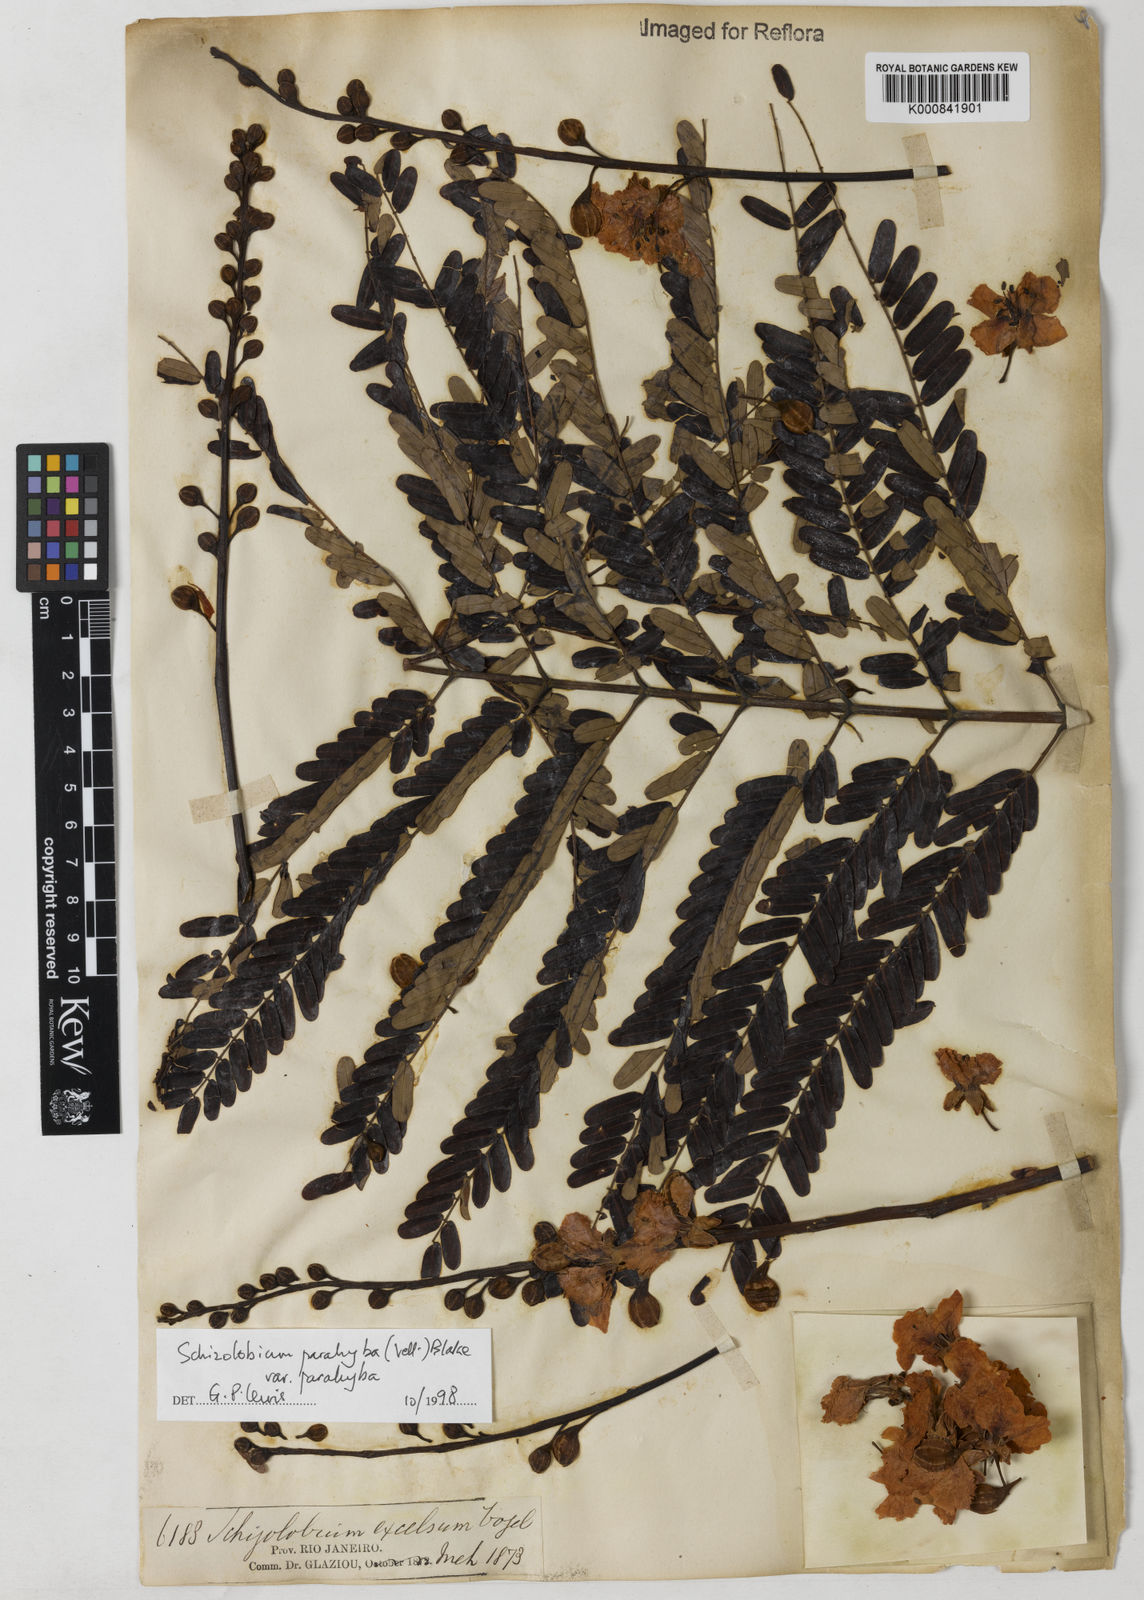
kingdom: Plantae
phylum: Tracheophyta
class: Magnoliopsida
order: Fabales
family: Fabaceae
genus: Schizolobium
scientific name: Schizolobium parahyba
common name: Brazilian firetree
